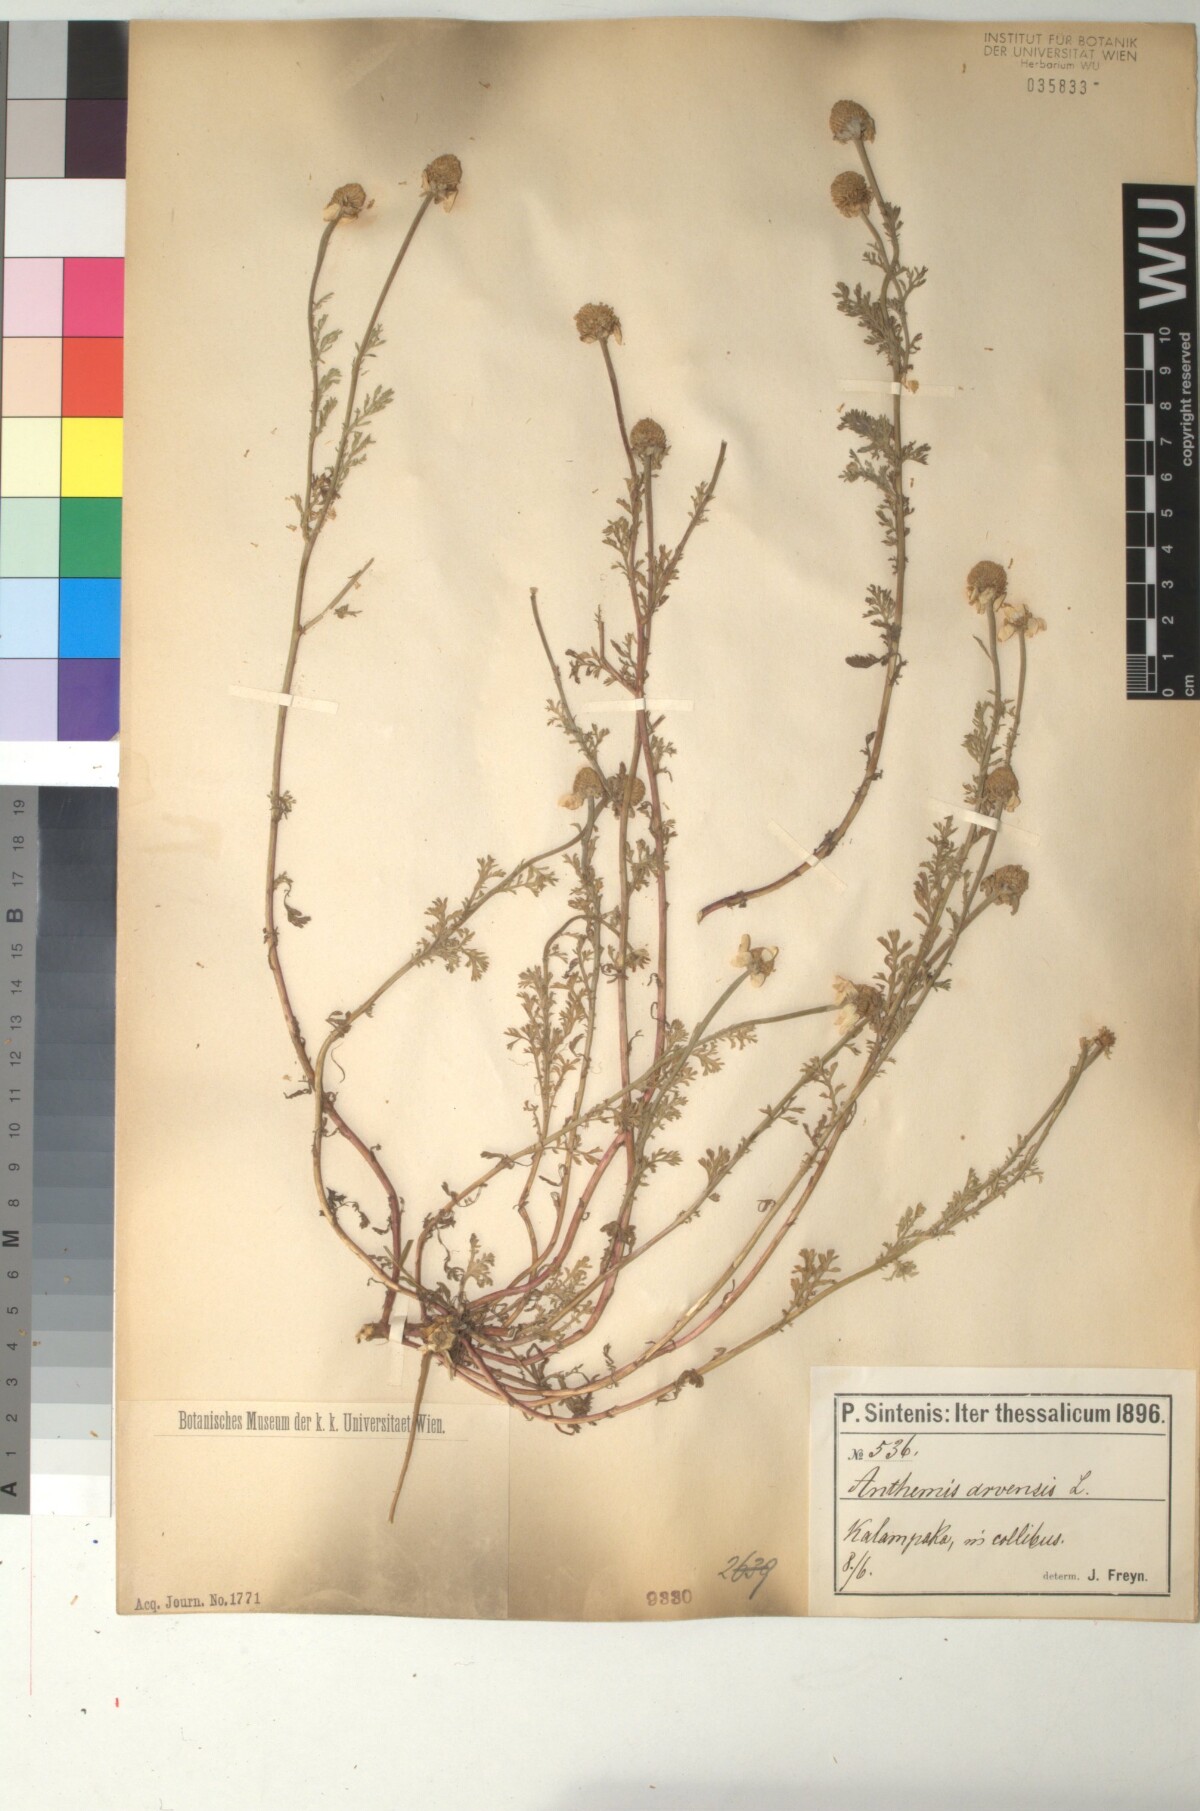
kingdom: Plantae
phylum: Tracheophyta
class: Magnoliopsida
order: Asterales
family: Asteraceae
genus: Anthemis
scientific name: Anthemis arvensis
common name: Corn chamomile
